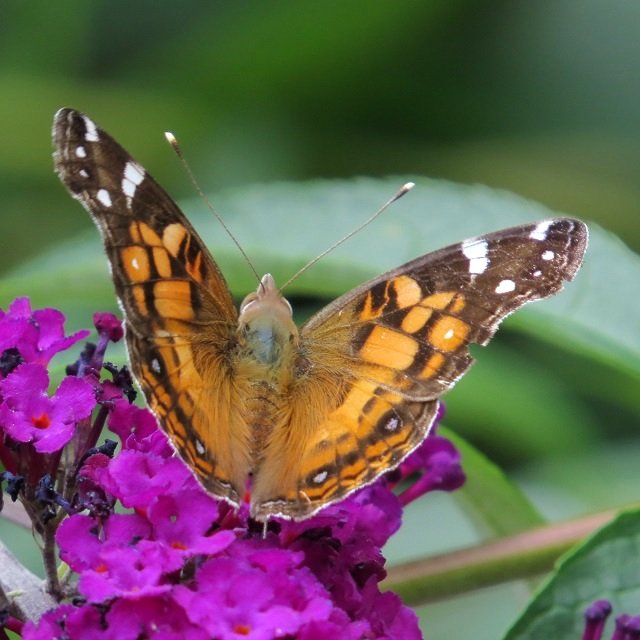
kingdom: Animalia
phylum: Arthropoda
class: Insecta
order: Lepidoptera
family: Nymphalidae
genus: Vanessa
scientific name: Vanessa virginiensis
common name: American Lady
